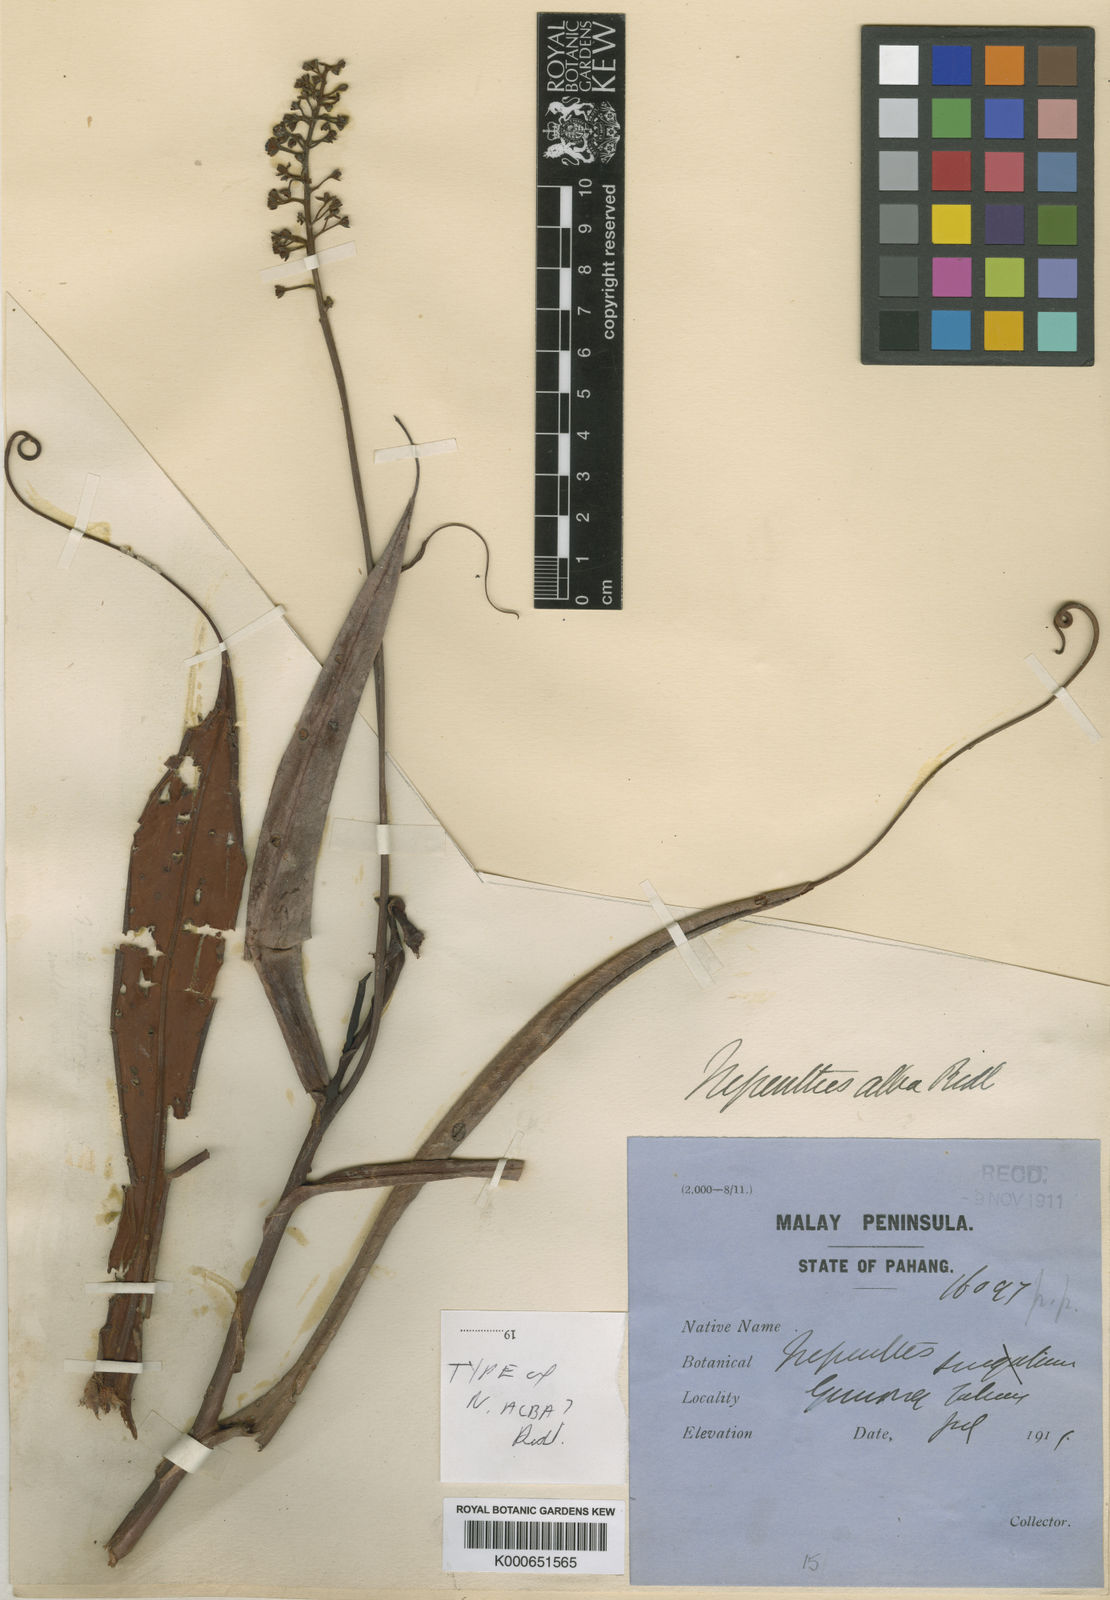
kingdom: Plantae
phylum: Tracheophyta
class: Magnoliopsida
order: Caryophyllales
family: Nepenthaceae
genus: Nepenthes
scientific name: Nepenthes gracillima
